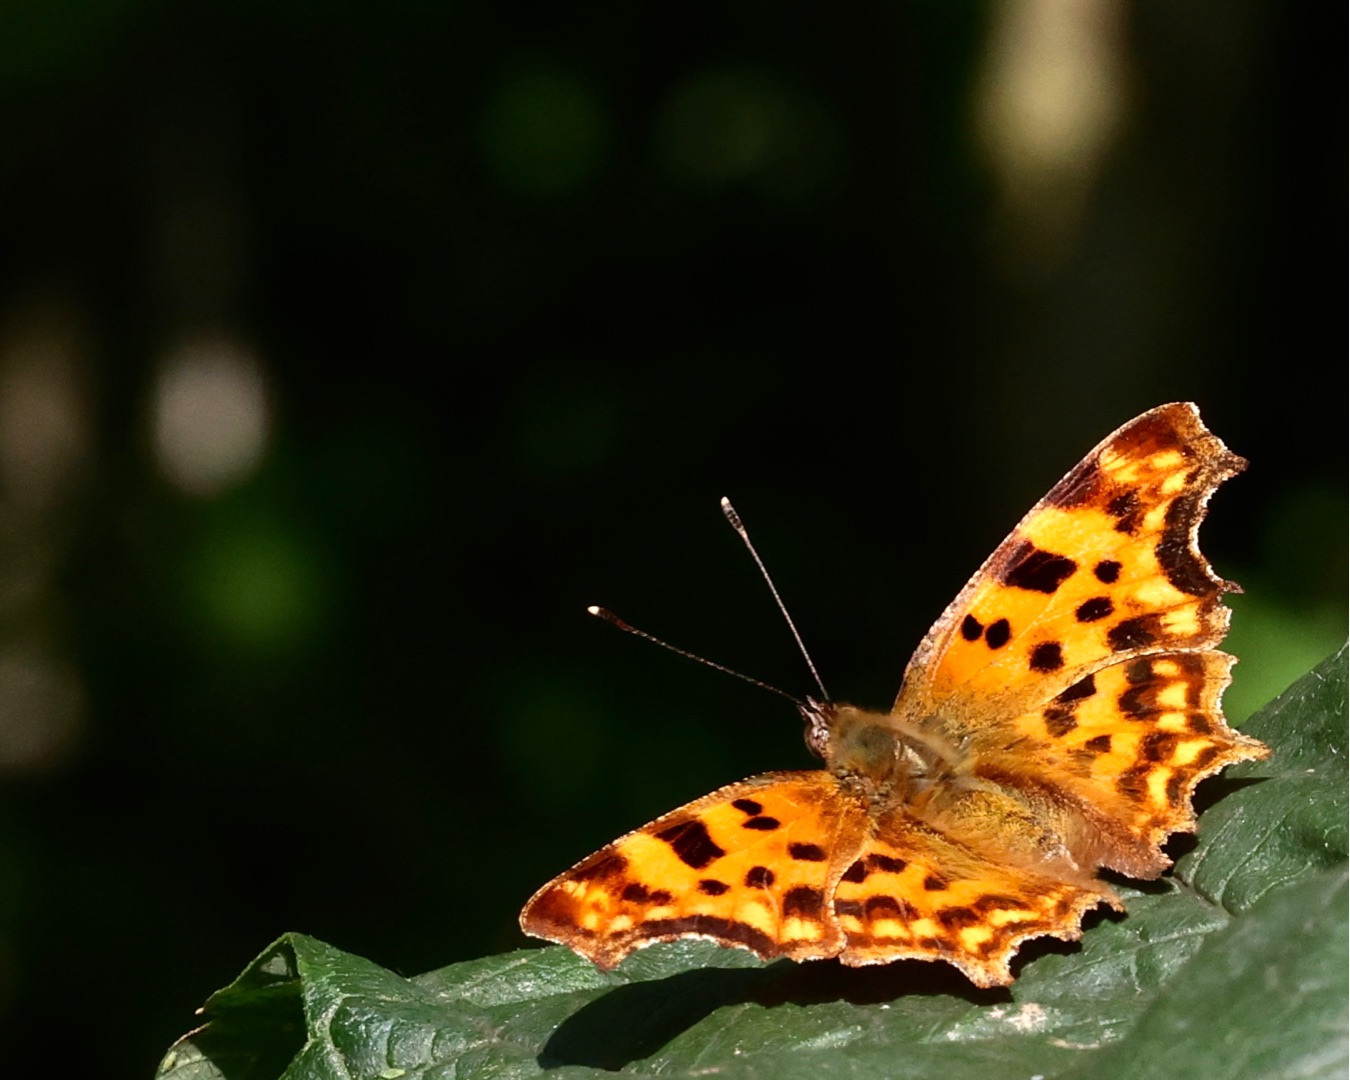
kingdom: Animalia
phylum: Arthropoda
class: Insecta
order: Lepidoptera
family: Nymphalidae
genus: Polygonia
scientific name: Polygonia c-album
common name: Det hvide C
